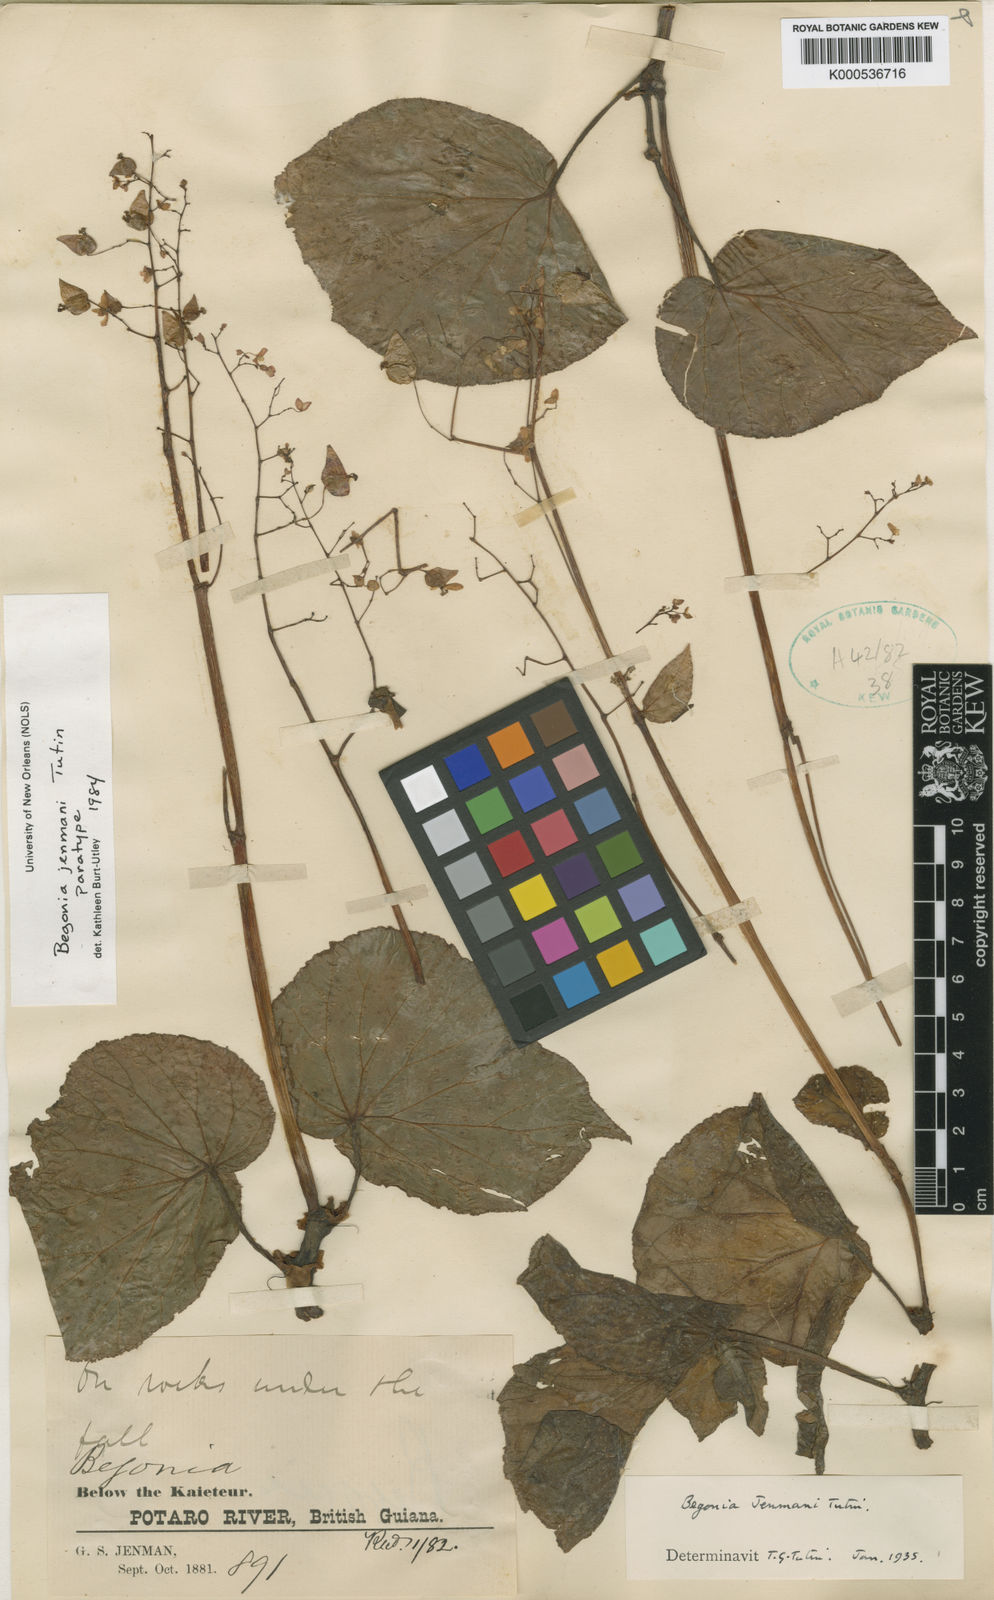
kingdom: Plantae
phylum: Tracheophyta
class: Magnoliopsida
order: Cucurbitales
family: Begoniaceae
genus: Begonia
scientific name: Begonia jenmanii
